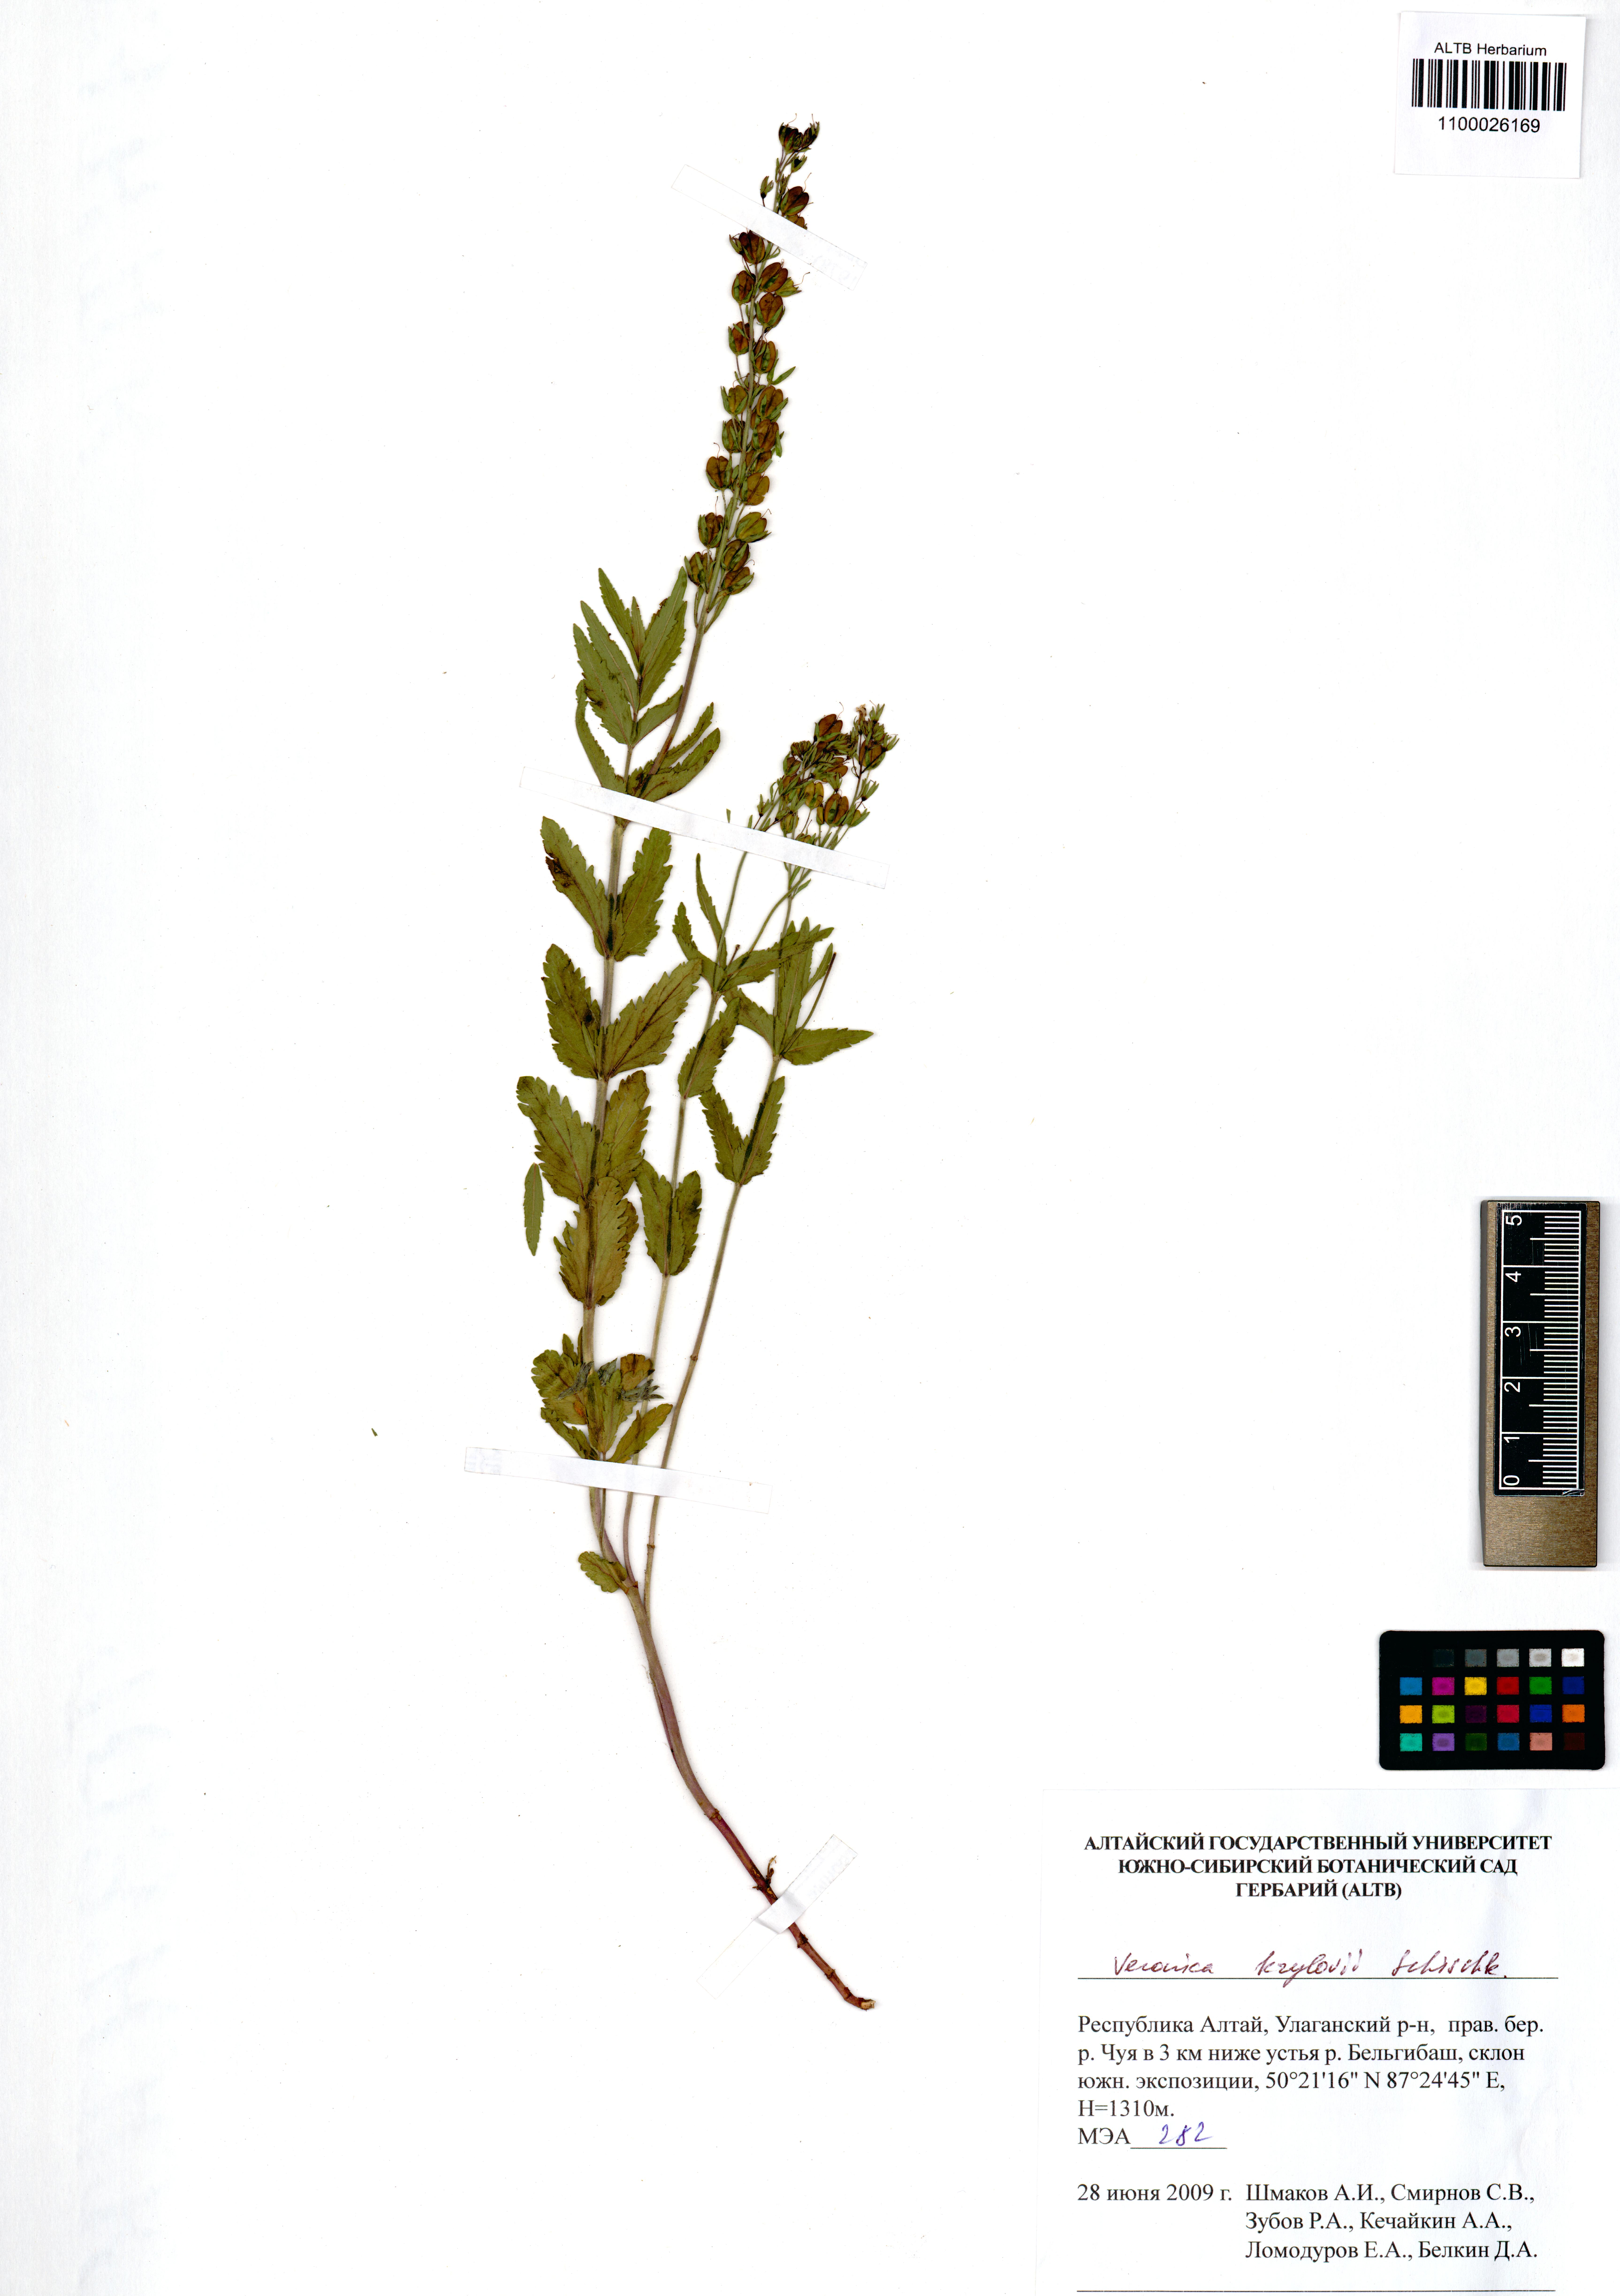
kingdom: Plantae
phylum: Tracheophyta
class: Magnoliopsida
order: Lamiales
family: Plantaginaceae
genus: Veronica
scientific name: Veronica krylovii
